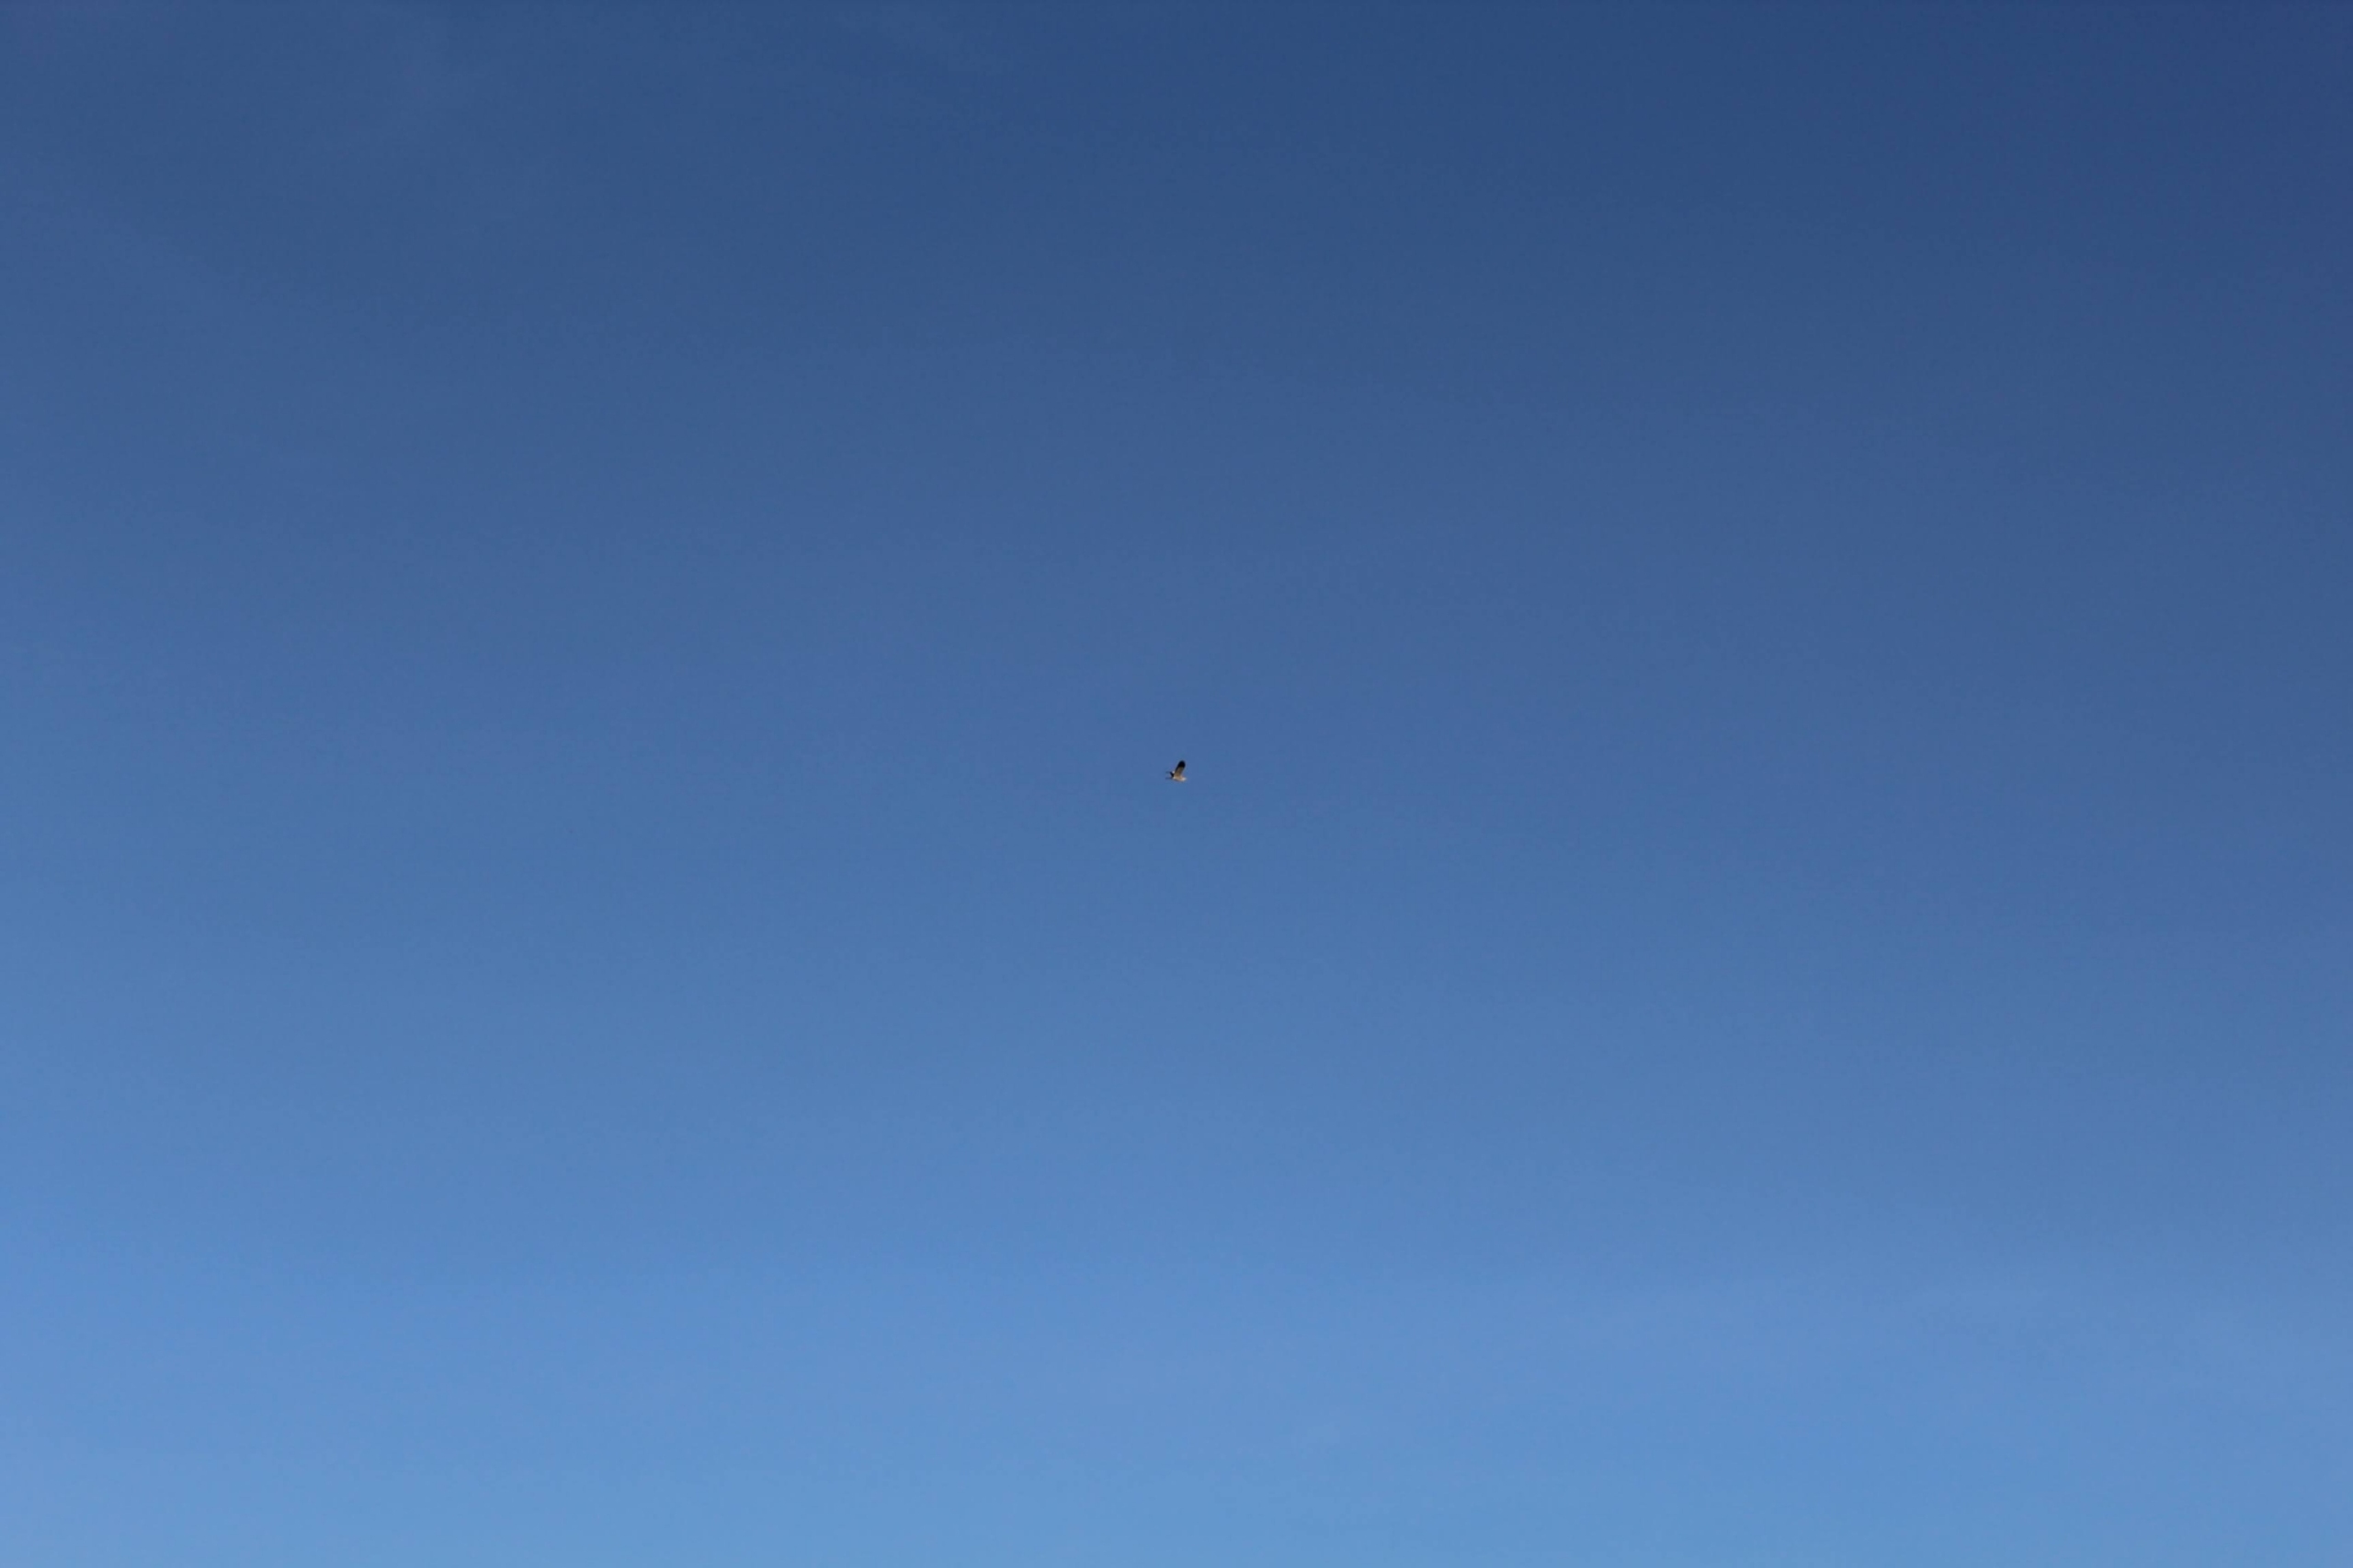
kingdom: Animalia
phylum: Chordata
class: Aves
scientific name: Aves
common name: Fugle
